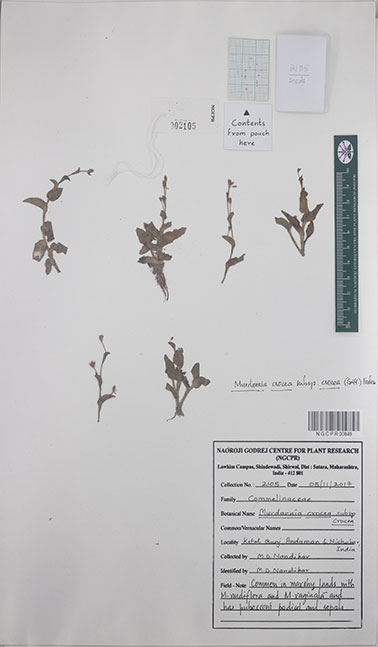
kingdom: Plantae
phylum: Tracheophyta
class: Liliopsida
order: Commelinales
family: Commelinaceae
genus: Murdannia
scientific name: Murdannia crocea
